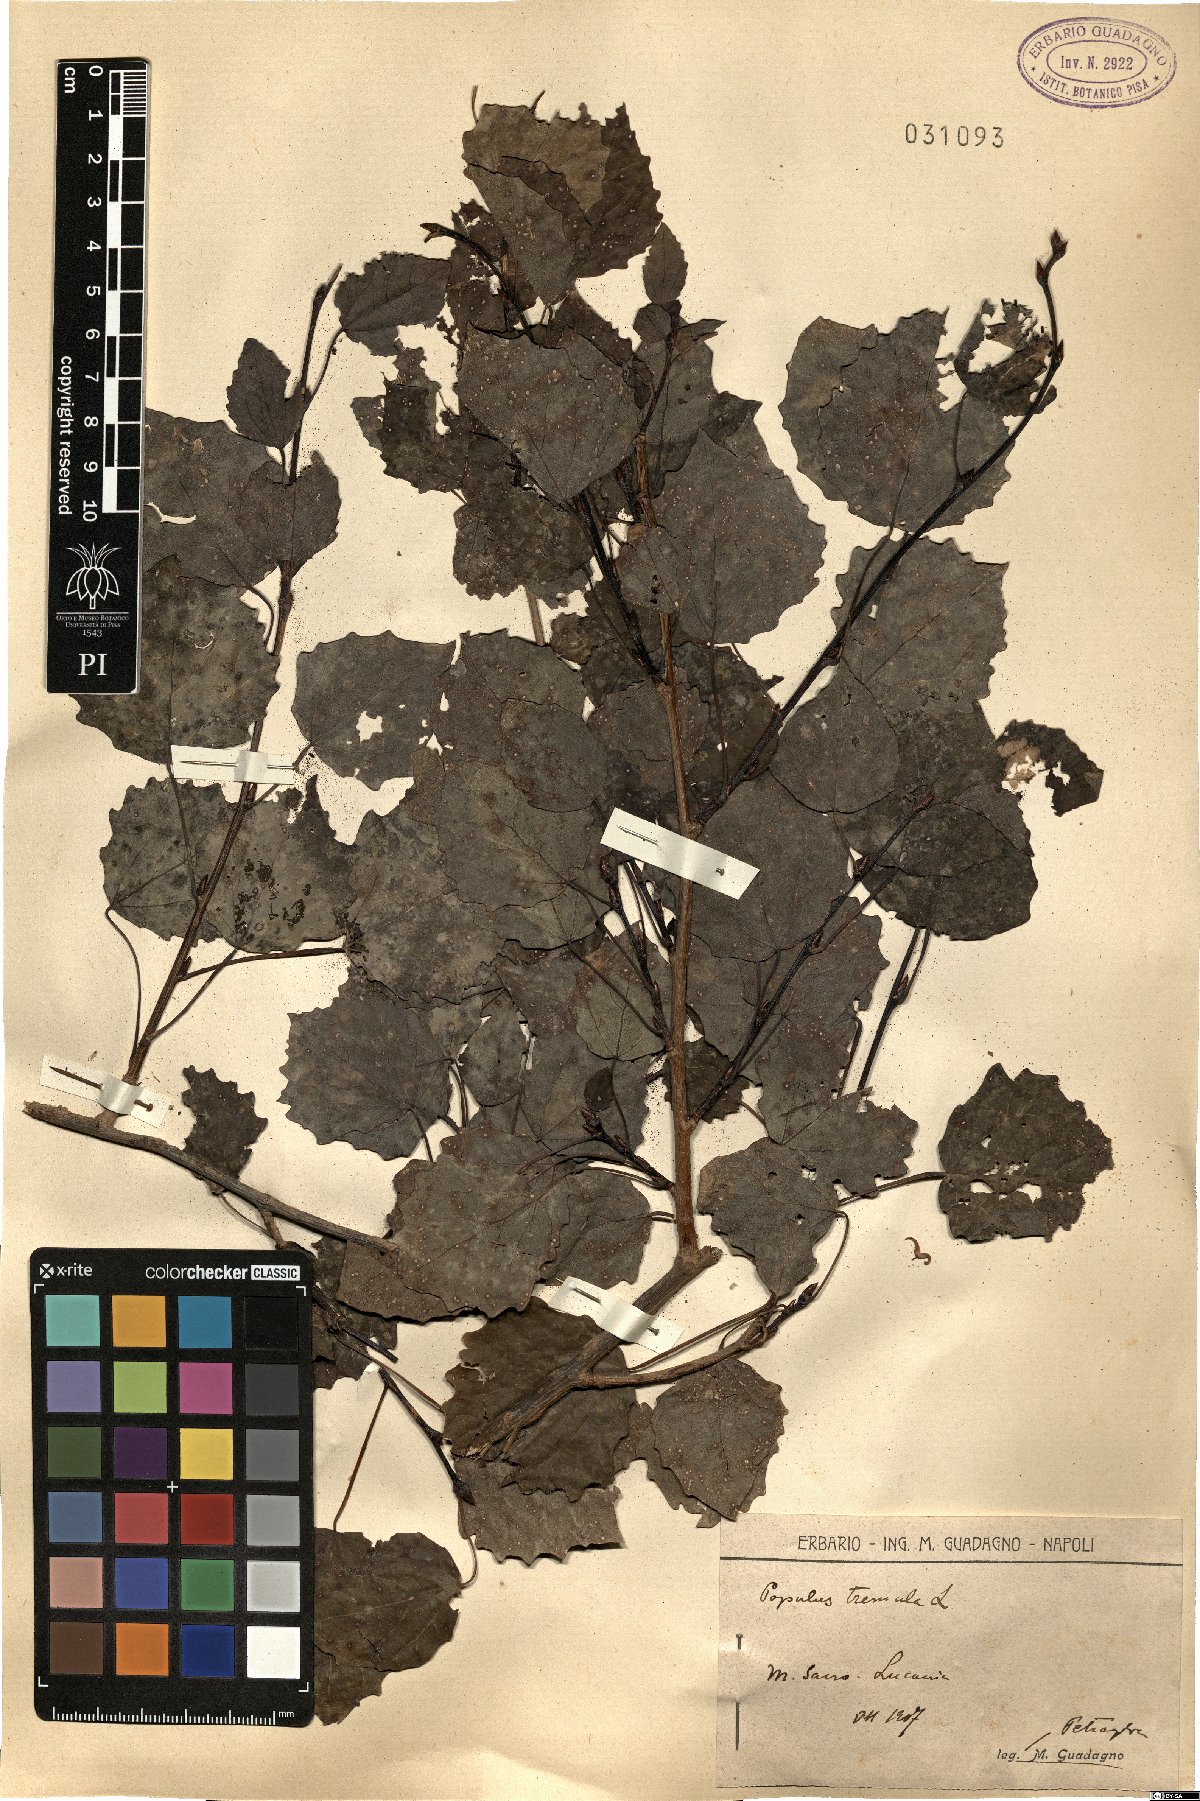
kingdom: Plantae
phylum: Tracheophyta
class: Magnoliopsida
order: Malpighiales
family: Salicaceae
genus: Populus
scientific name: Populus tremula
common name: European aspen
